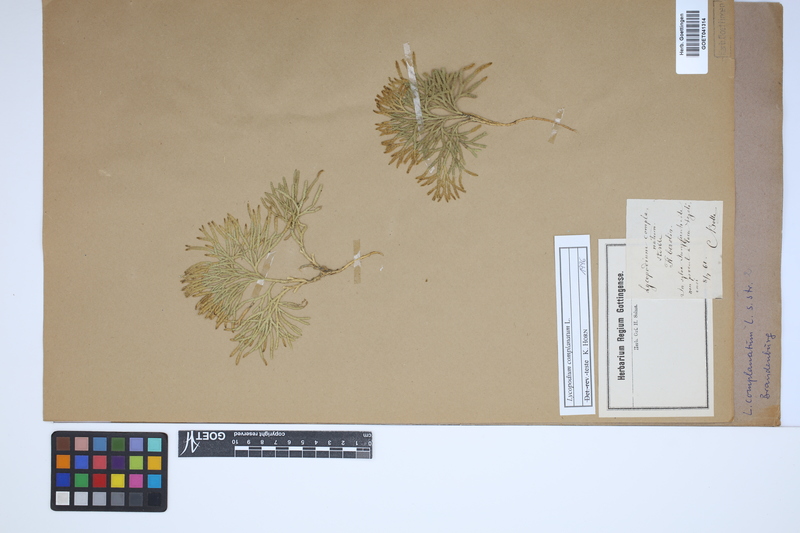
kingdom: Plantae
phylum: Tracheophyta
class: Lycopodiopsida
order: Lycopodiales
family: Lycopodiaceae
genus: Diphasiastrum
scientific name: Diphasiastrum complanatum
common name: Northern running-pine
